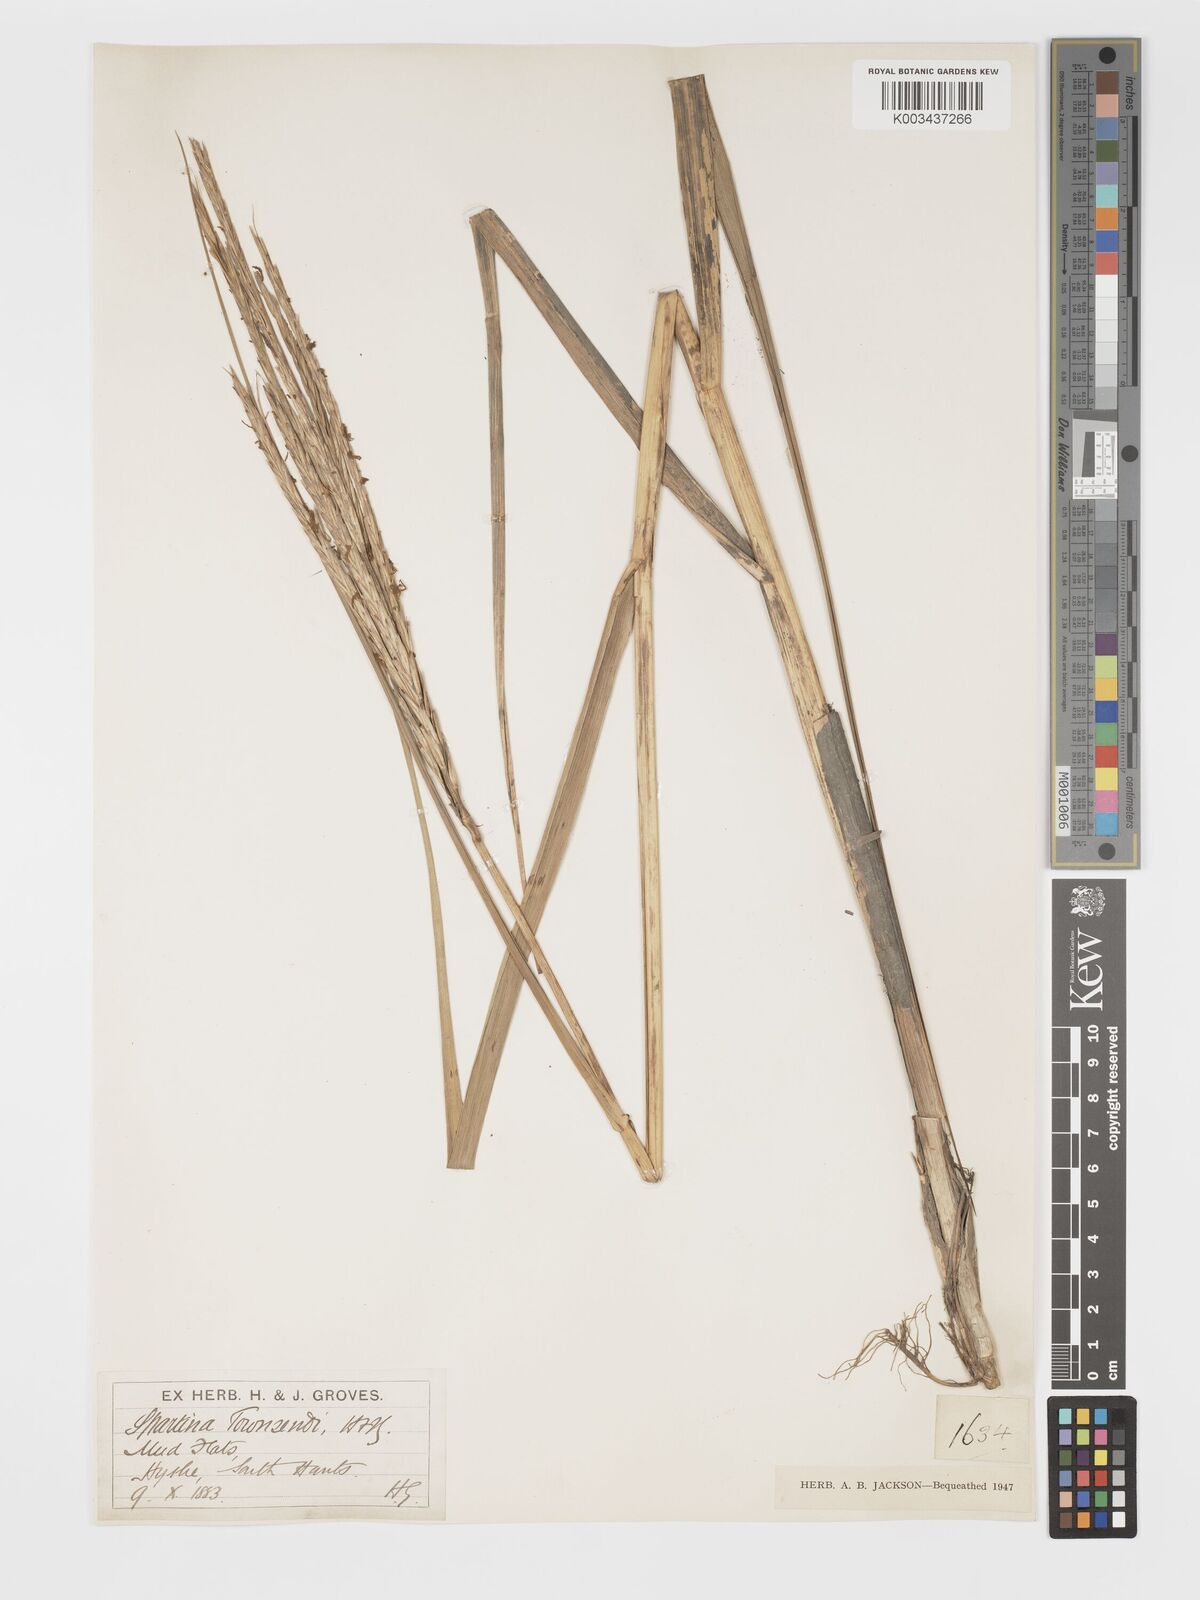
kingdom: Plantae
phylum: Tracheophyta
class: Liliopsida
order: Poales
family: Poaceae
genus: Sporobolus
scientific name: Sporobolus townsendii
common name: Townsend's cordgrass
